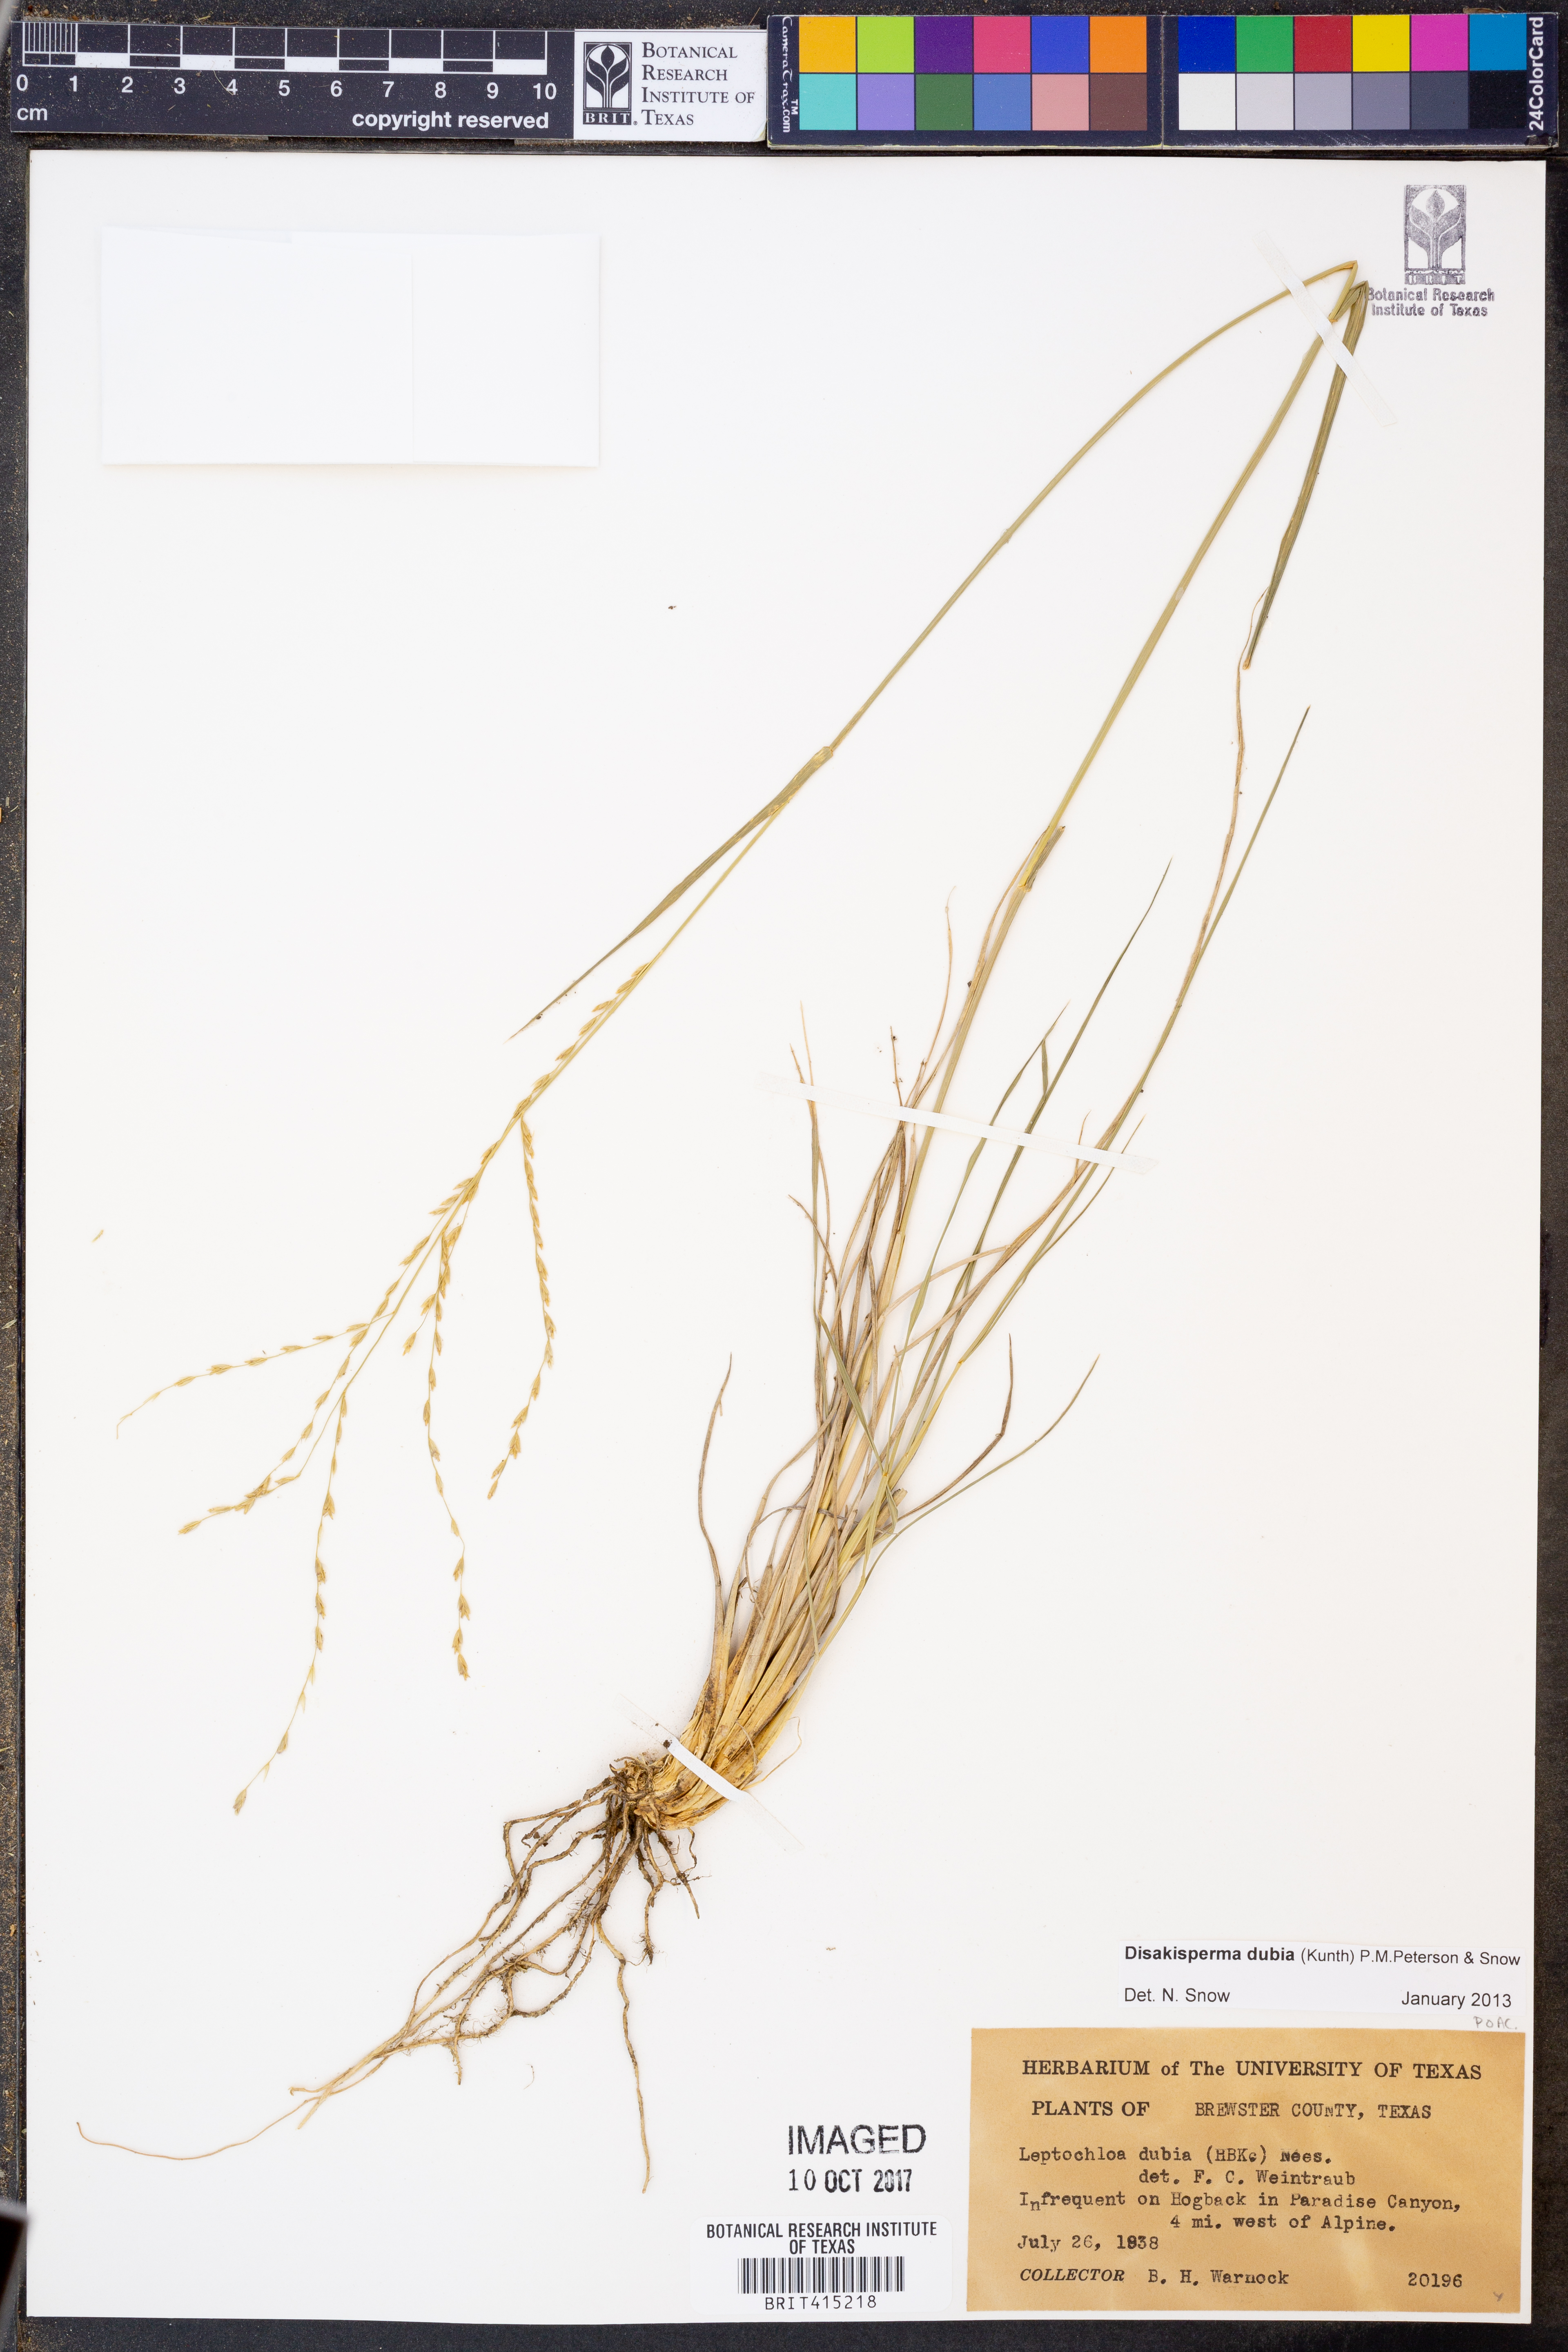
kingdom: Plantae
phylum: Tracheophyta
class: Liliopsida
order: Poales
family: Poaceae
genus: Disakisperma
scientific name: Disakisperma dubium
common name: Green sprangletop
